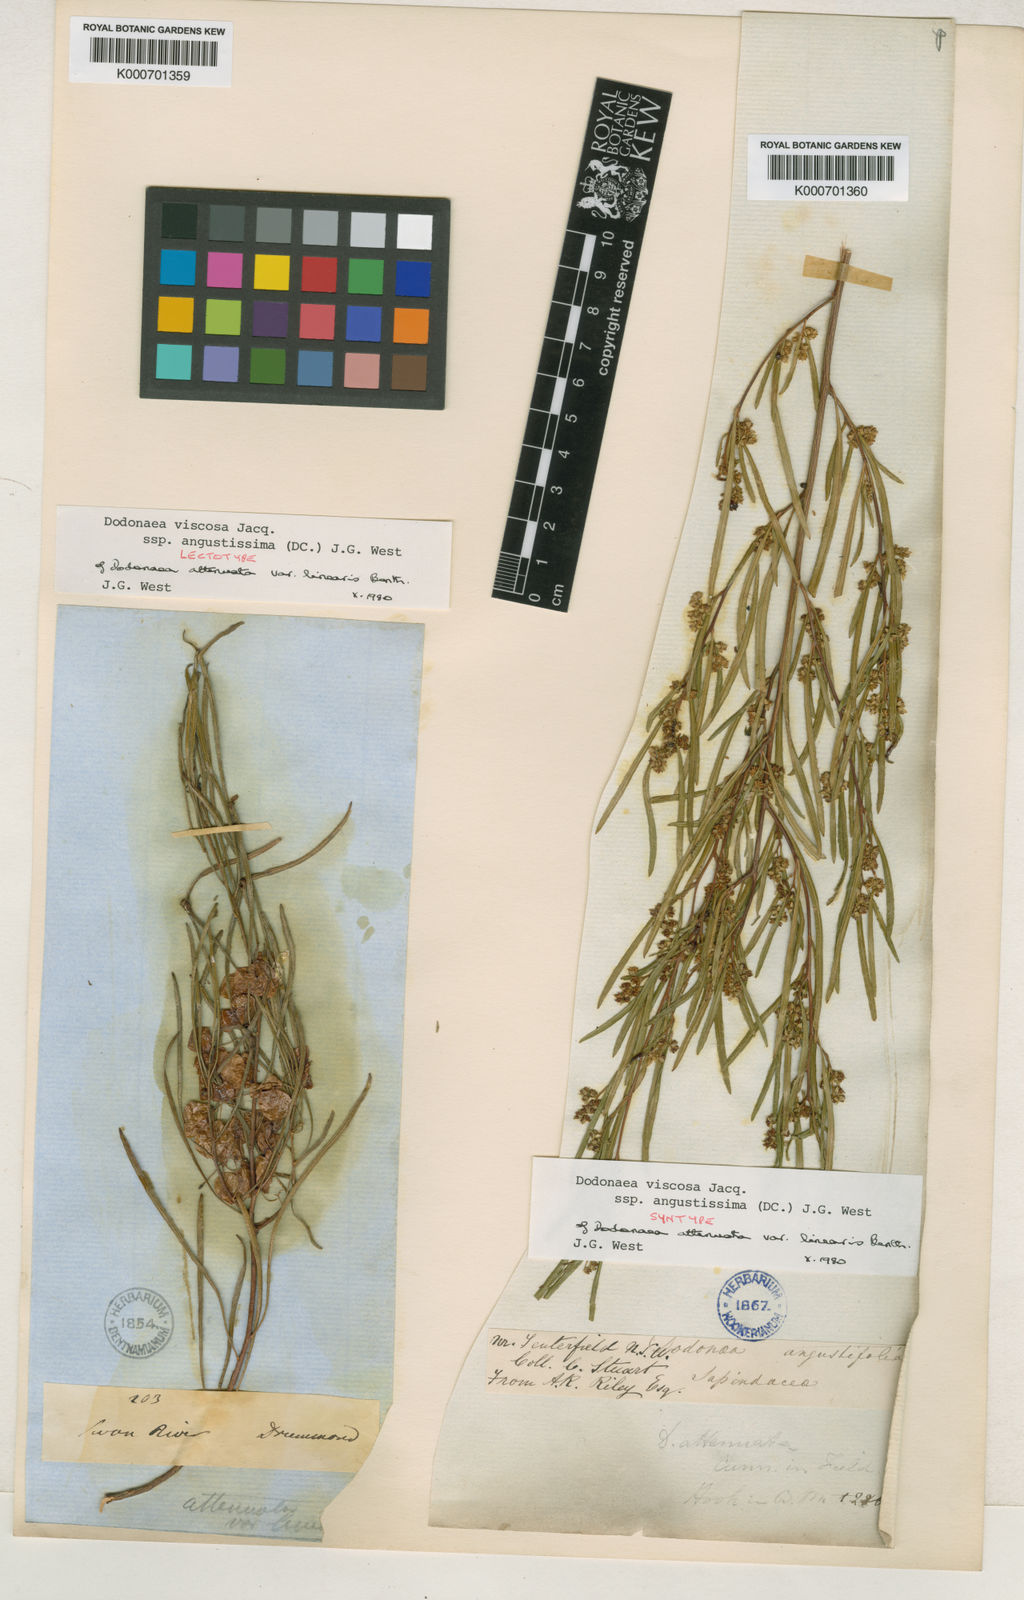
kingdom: Plantae
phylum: Tracheophyta
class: Magnoliopsida
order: Sapindales
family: Sapindaceae
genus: Dodonaea
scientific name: Dodonaea viscosa
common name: Hopbush
